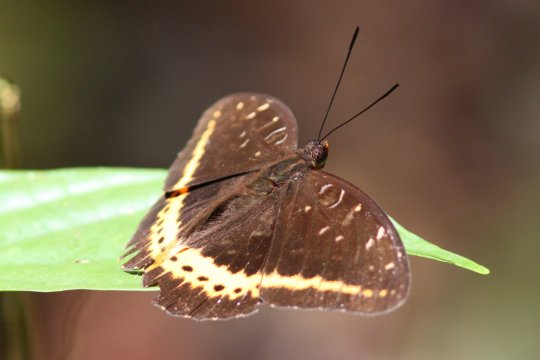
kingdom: Animalia
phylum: Arthropoda
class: Insecta
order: Lepidoptera
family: Nymphalidae
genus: Lexias
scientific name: Lexias panopus
